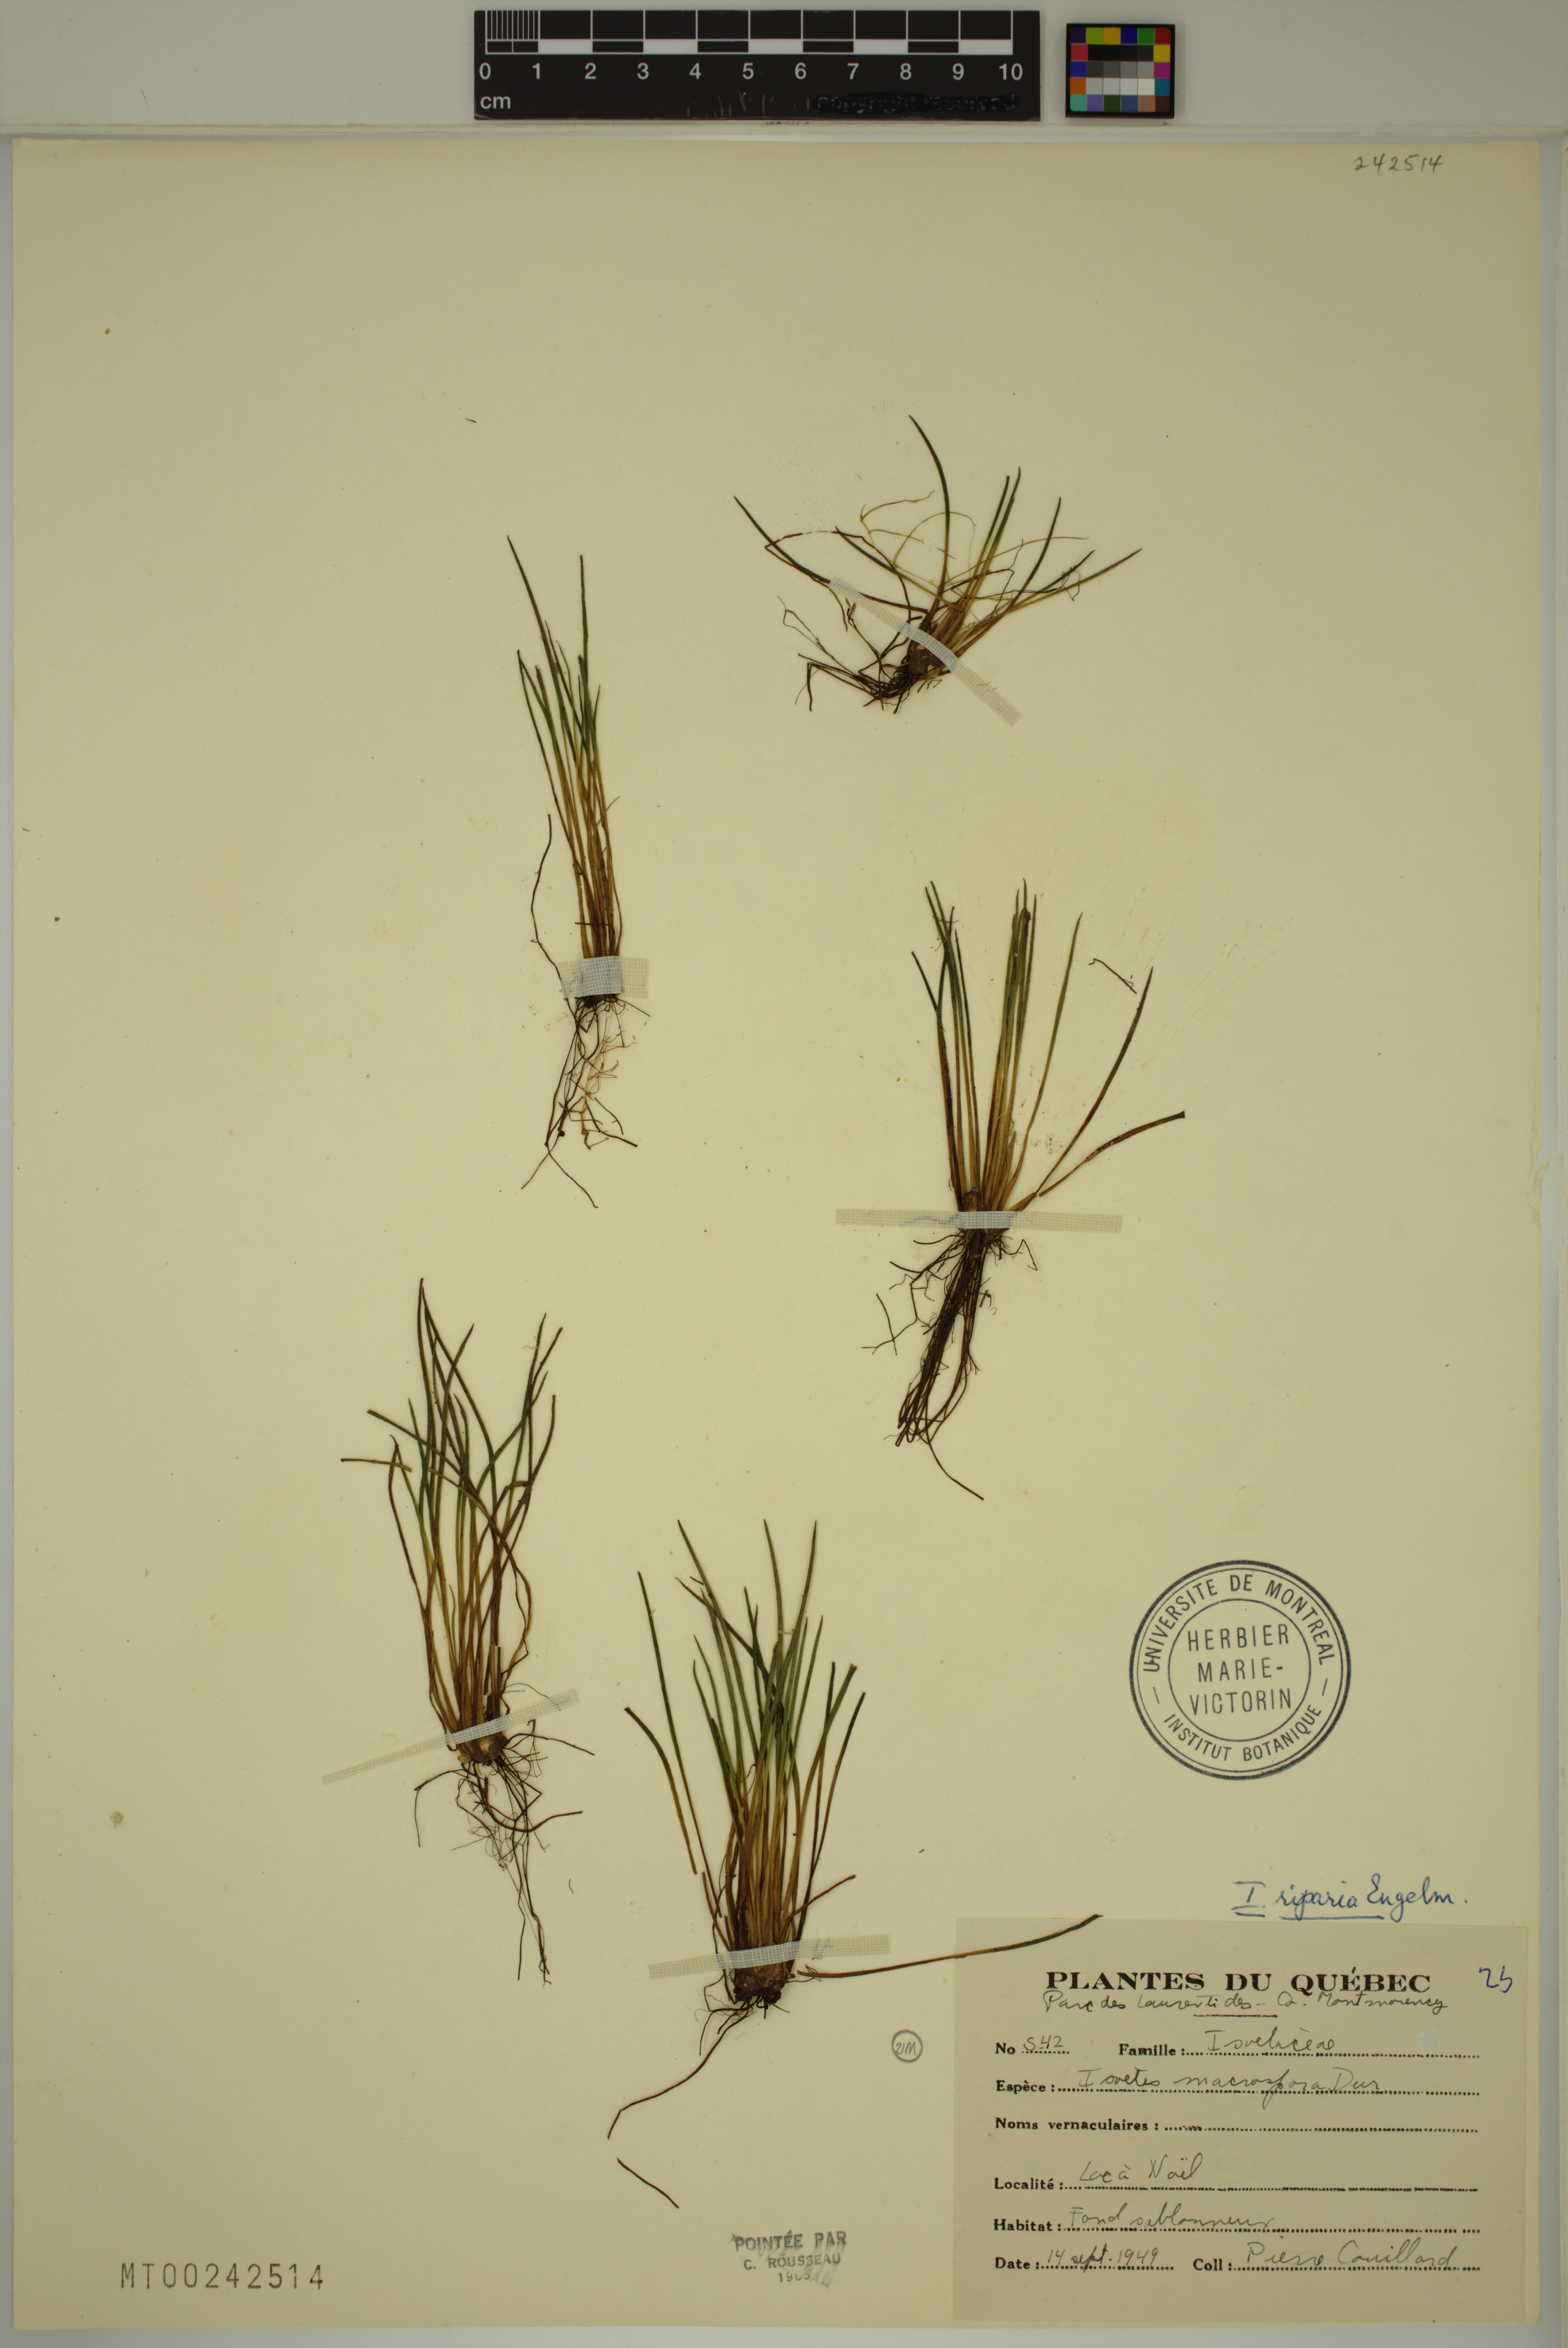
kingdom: Plantae
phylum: Tracheophyta
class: Lycopodiopsida
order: Isoetales
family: Isoetaceae
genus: Isoetes
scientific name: Isoetes tuckermanii
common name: Tuckerman's quillwort
